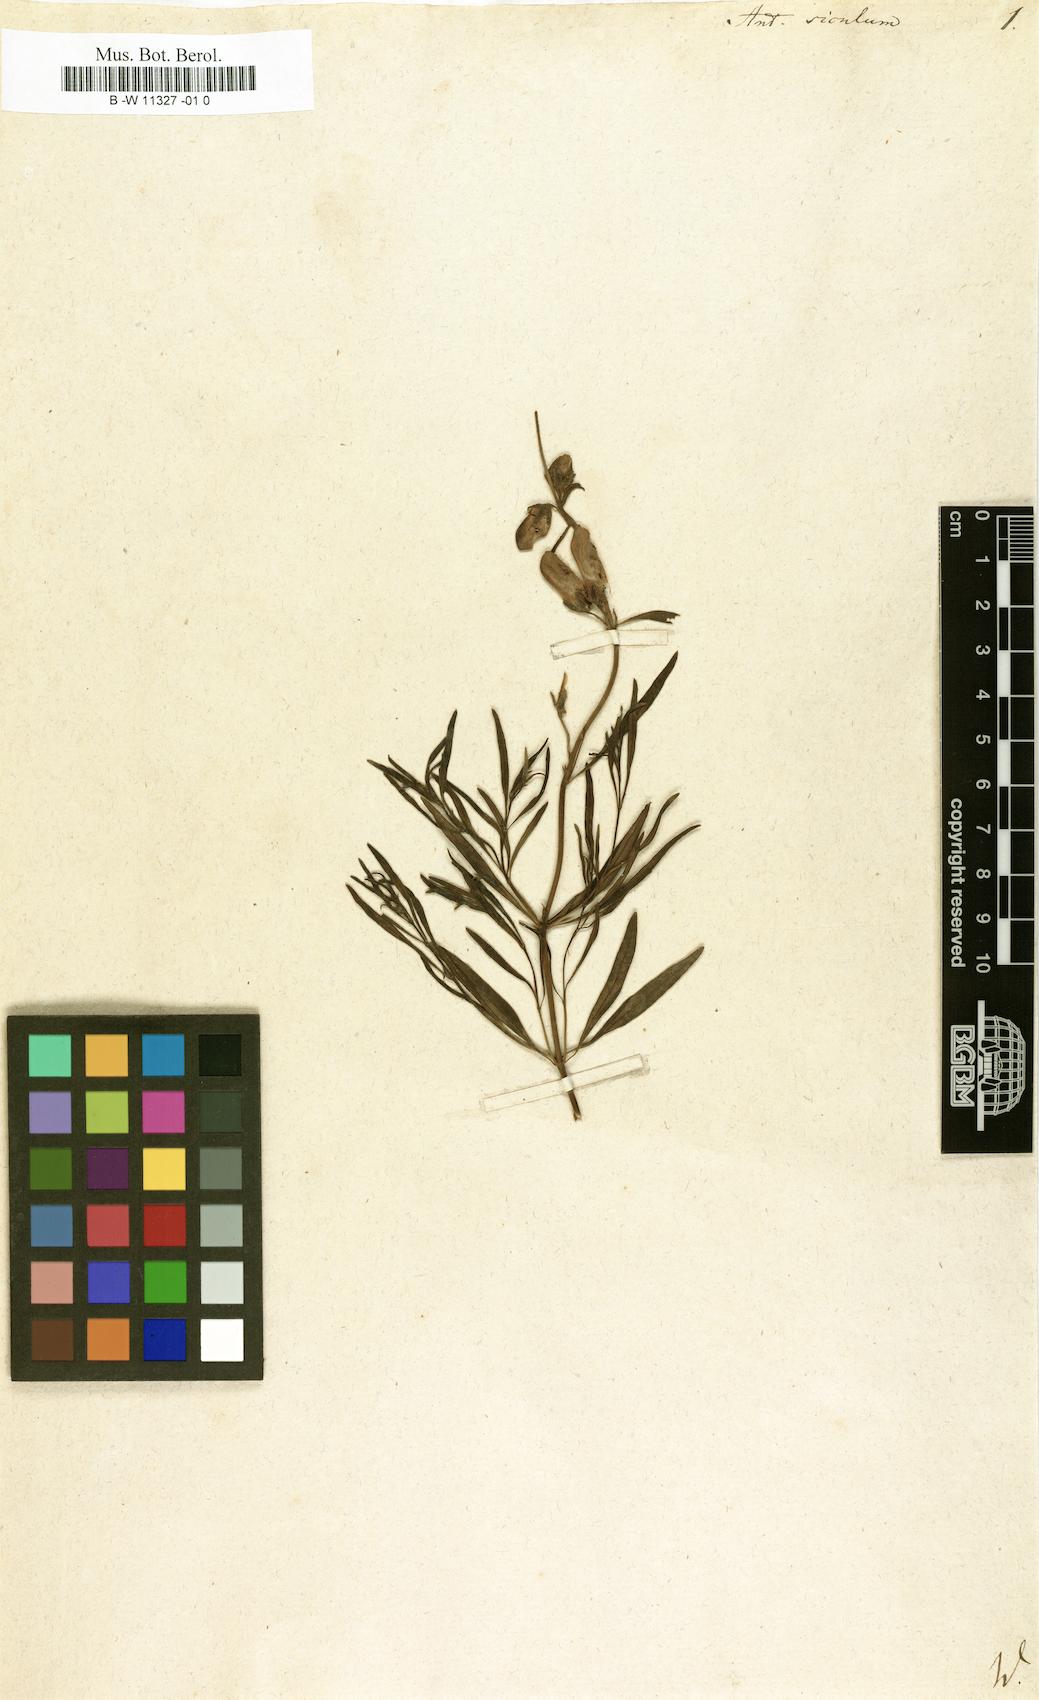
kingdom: Plantae
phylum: Tracheophyta
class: Magnoliopsida
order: Lamiales
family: Plantaginaceae
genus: Antirrhinum
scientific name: Antirrhinum siculum
